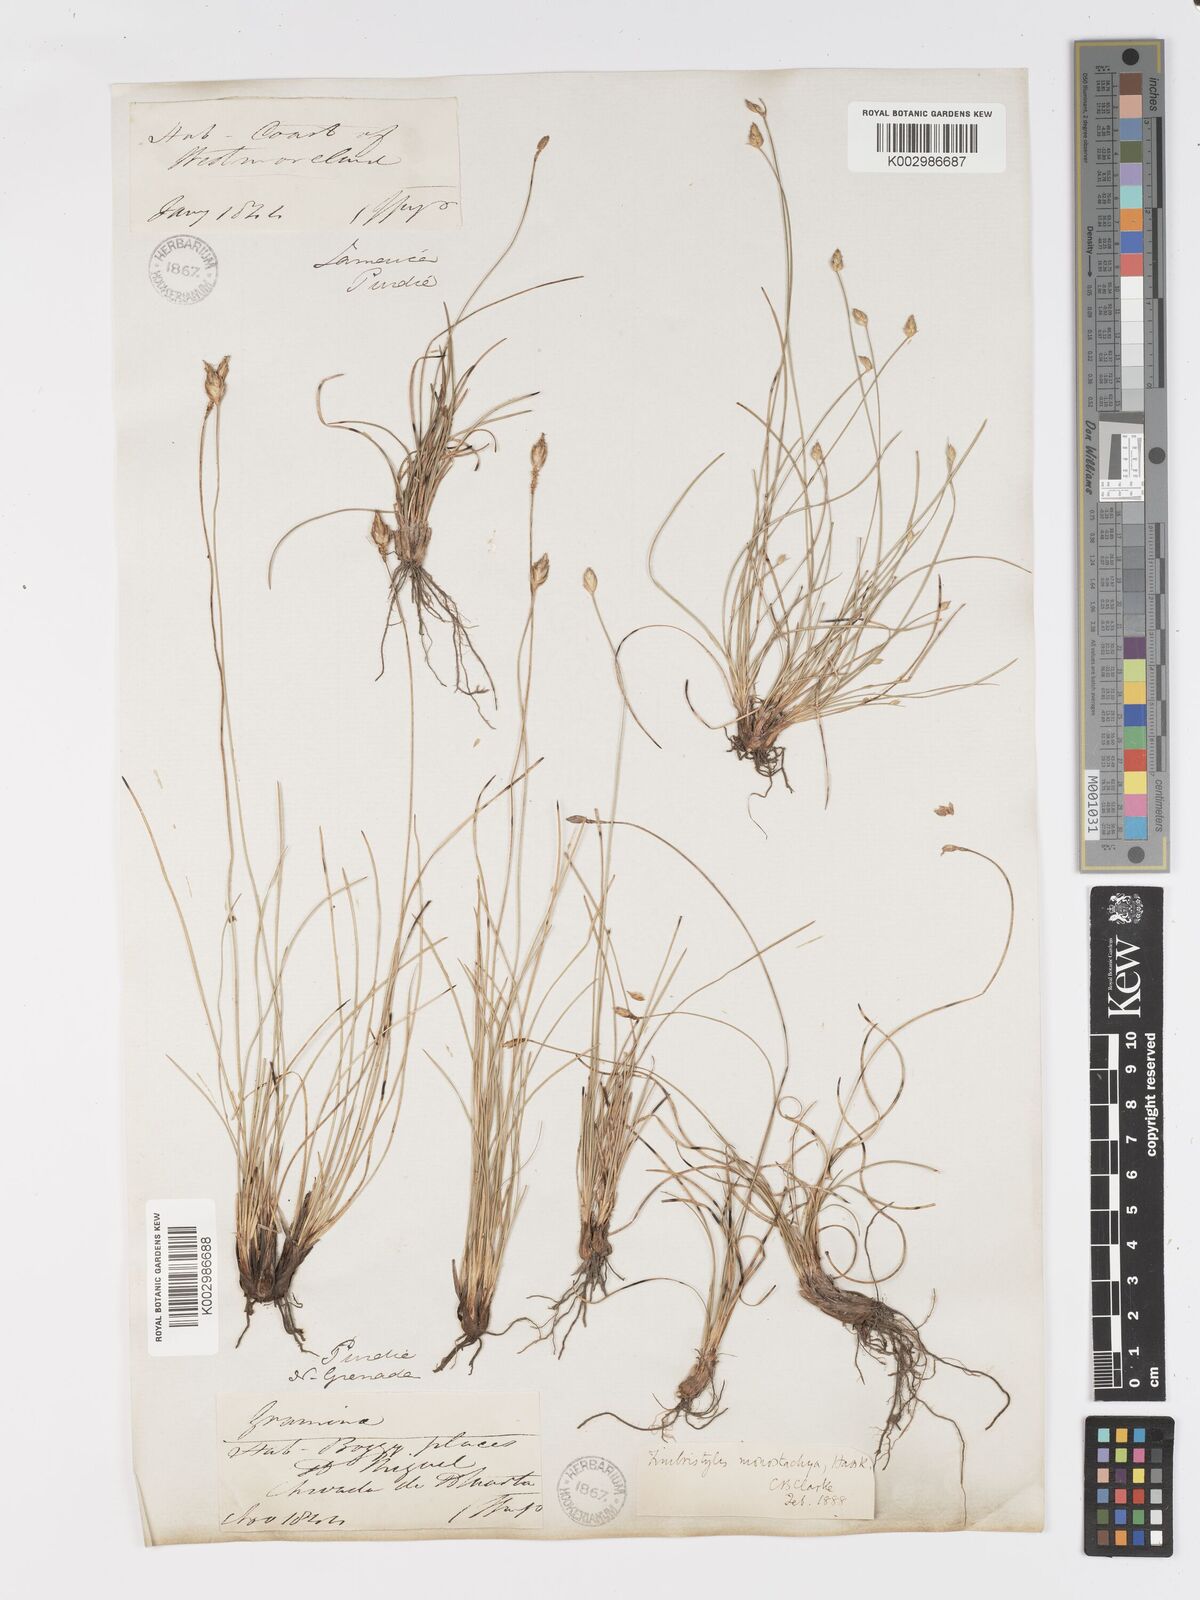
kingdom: Plantae
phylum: Tracheophyta
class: Liliopsida
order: Poales
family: Cyperaceae
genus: Abildgaardia
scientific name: Abildgaardia ovata
